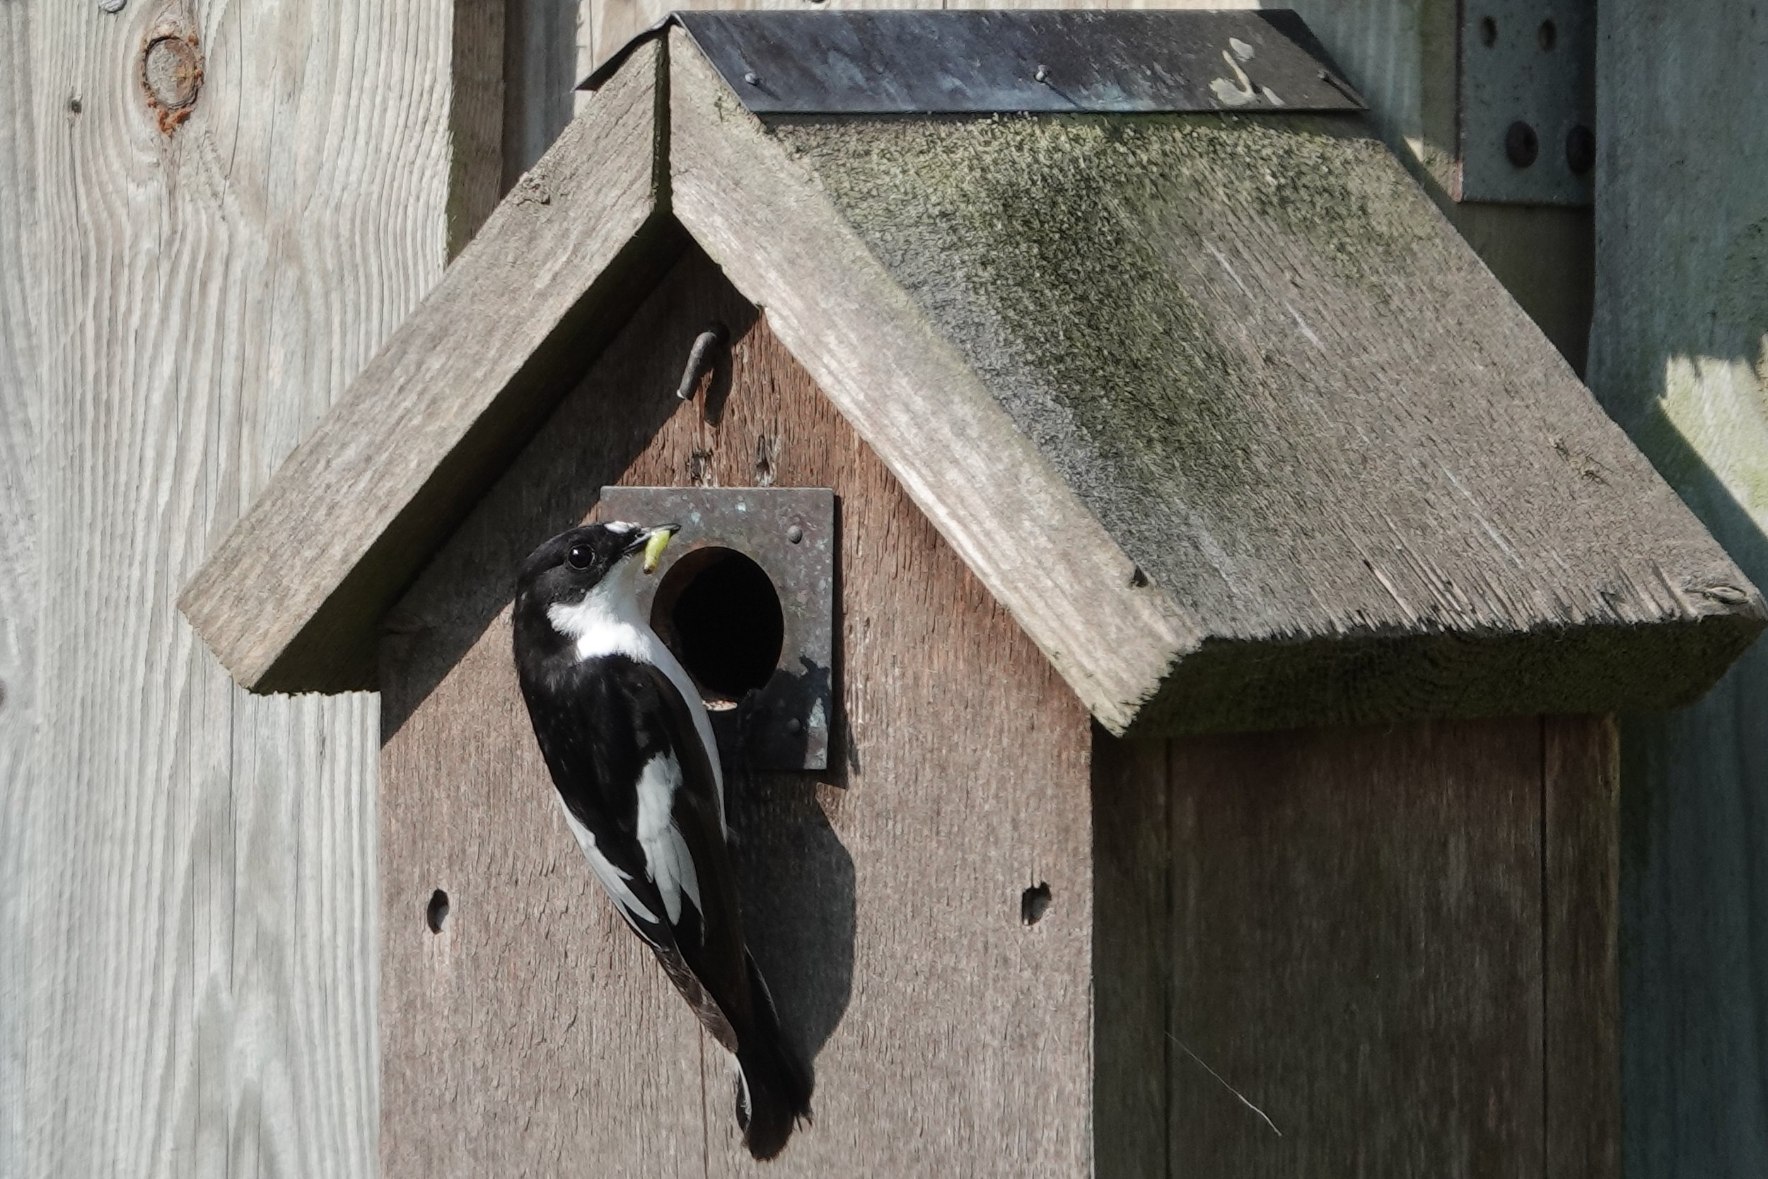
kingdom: Animalia
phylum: Chordata
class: Aves
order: Passeriformes
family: Muscicapidae
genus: Ficedula
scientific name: Ficedula hypoleuca
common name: Broget fluesnapper
